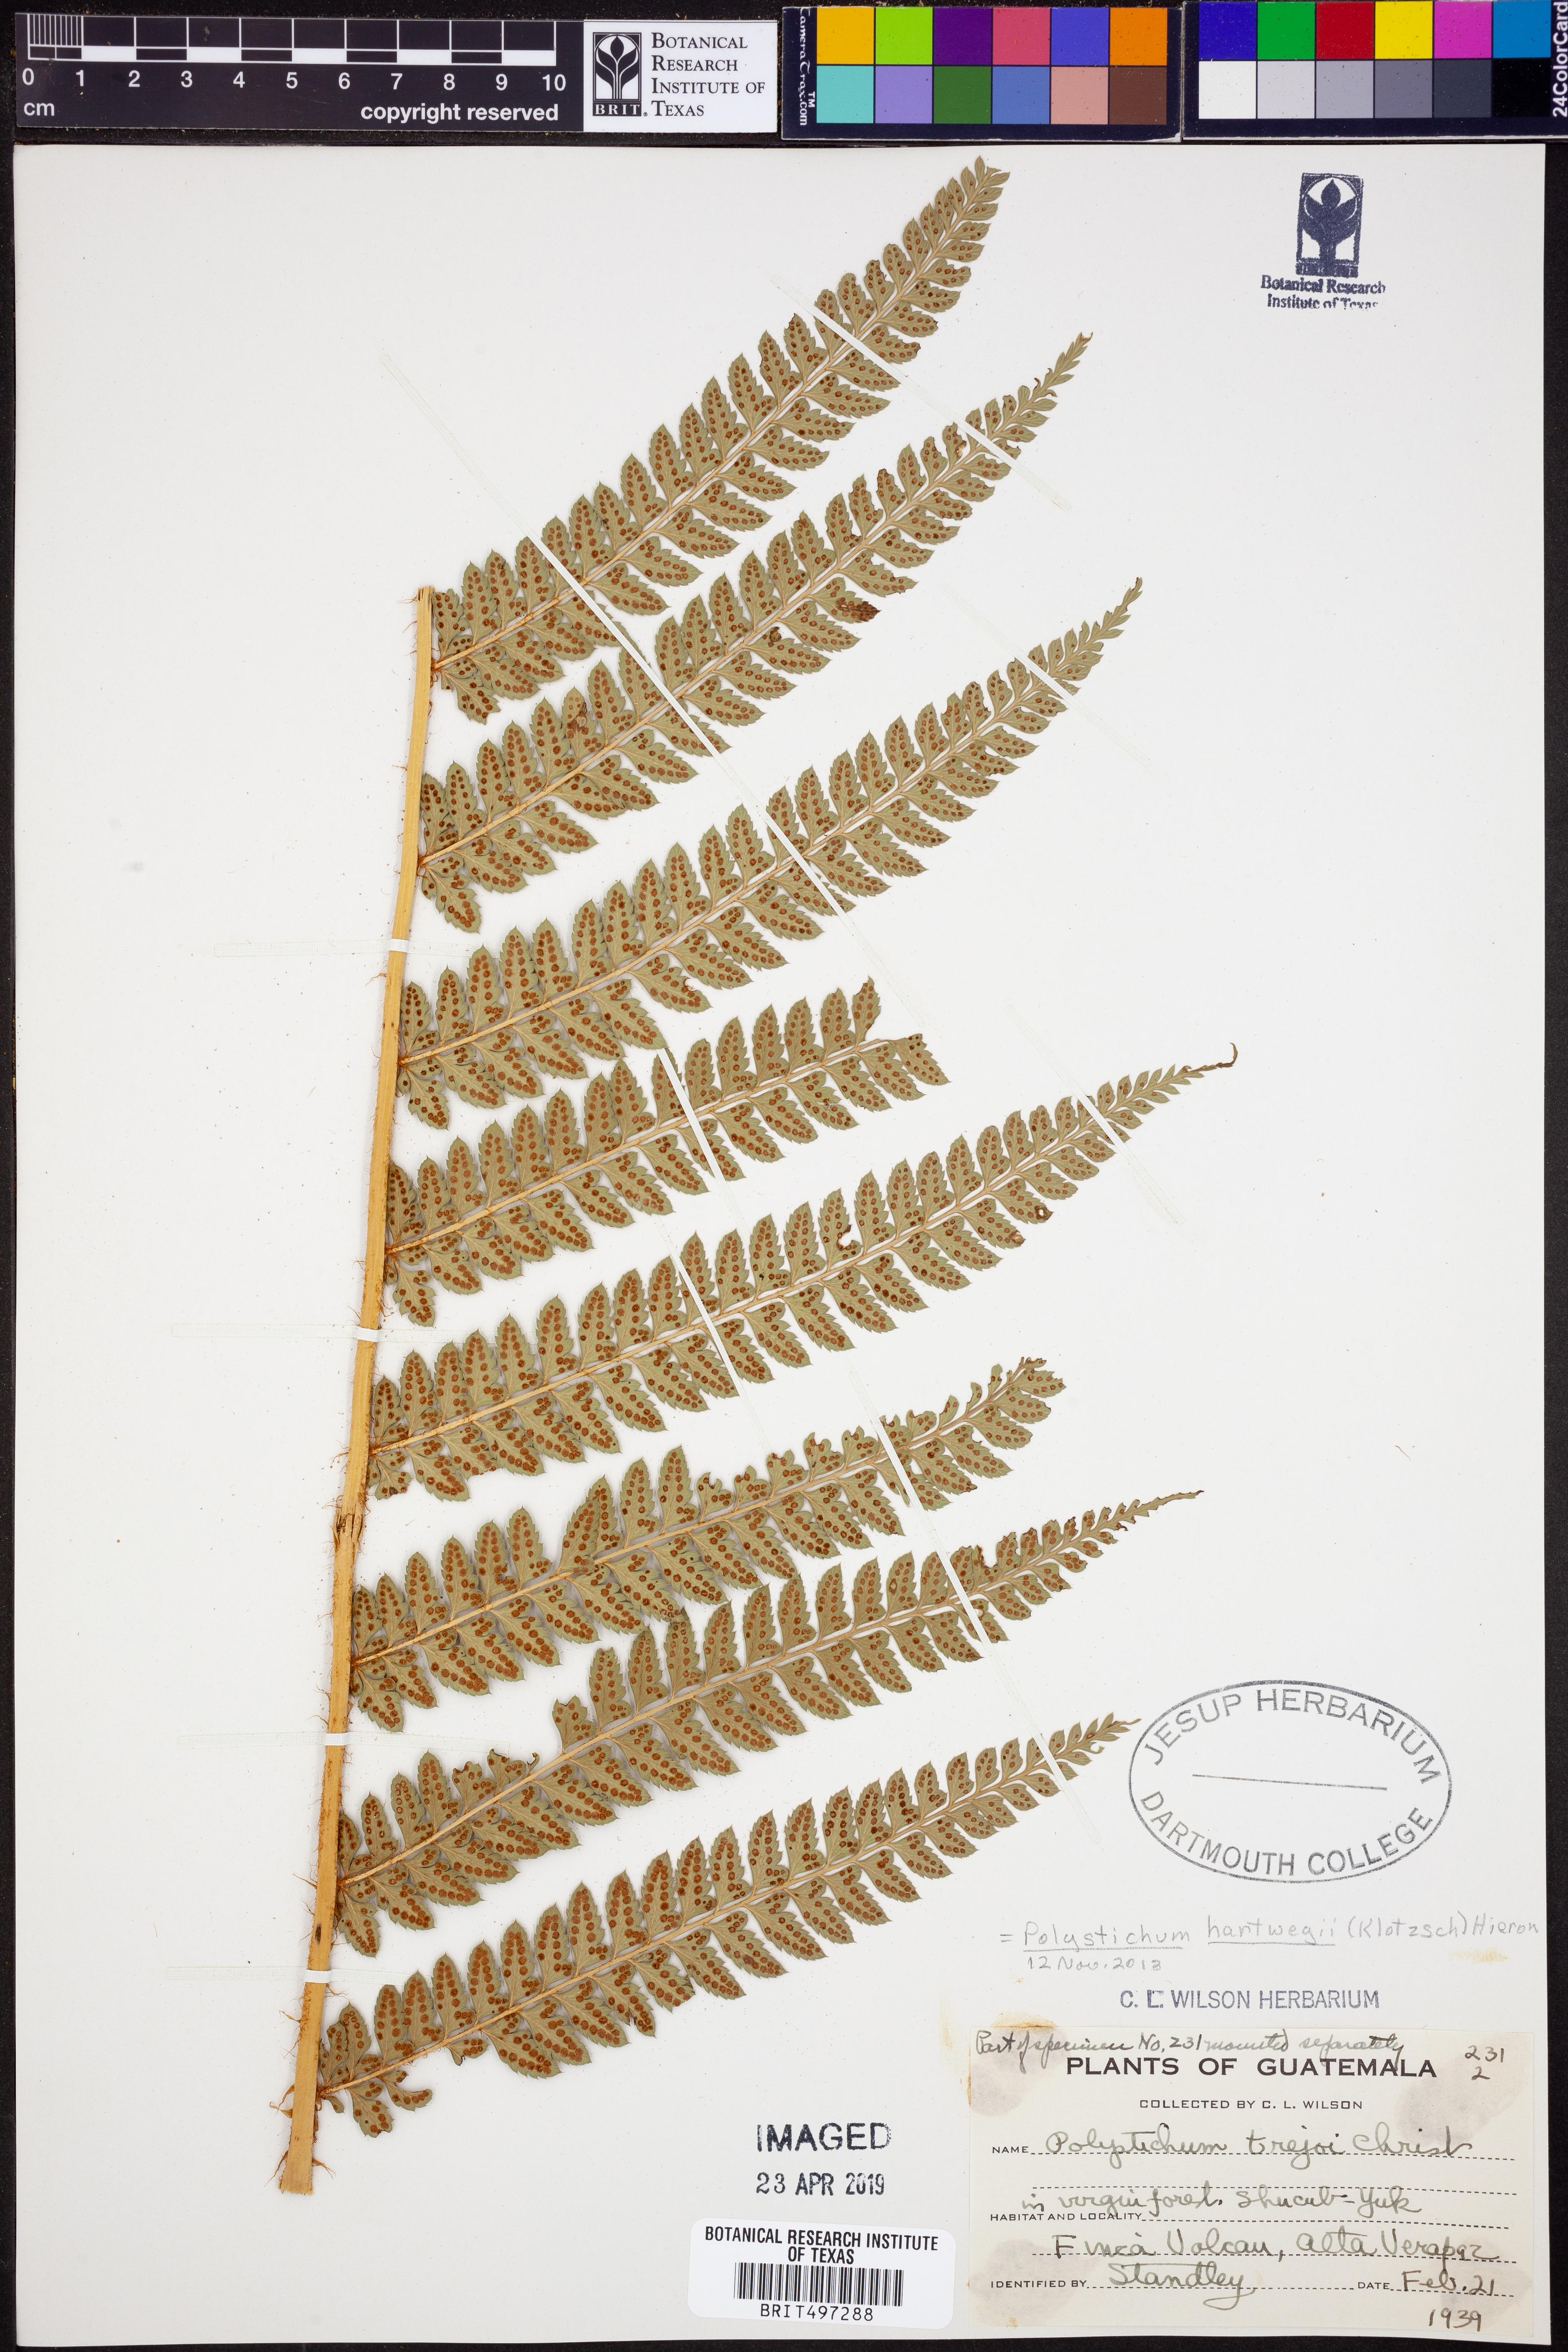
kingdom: Plantae
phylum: Tracheophyta
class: Polypodiopsida
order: Polypodiales
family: Dryopteridaceae
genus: Polystichum
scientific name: Polystichum hartwegii
